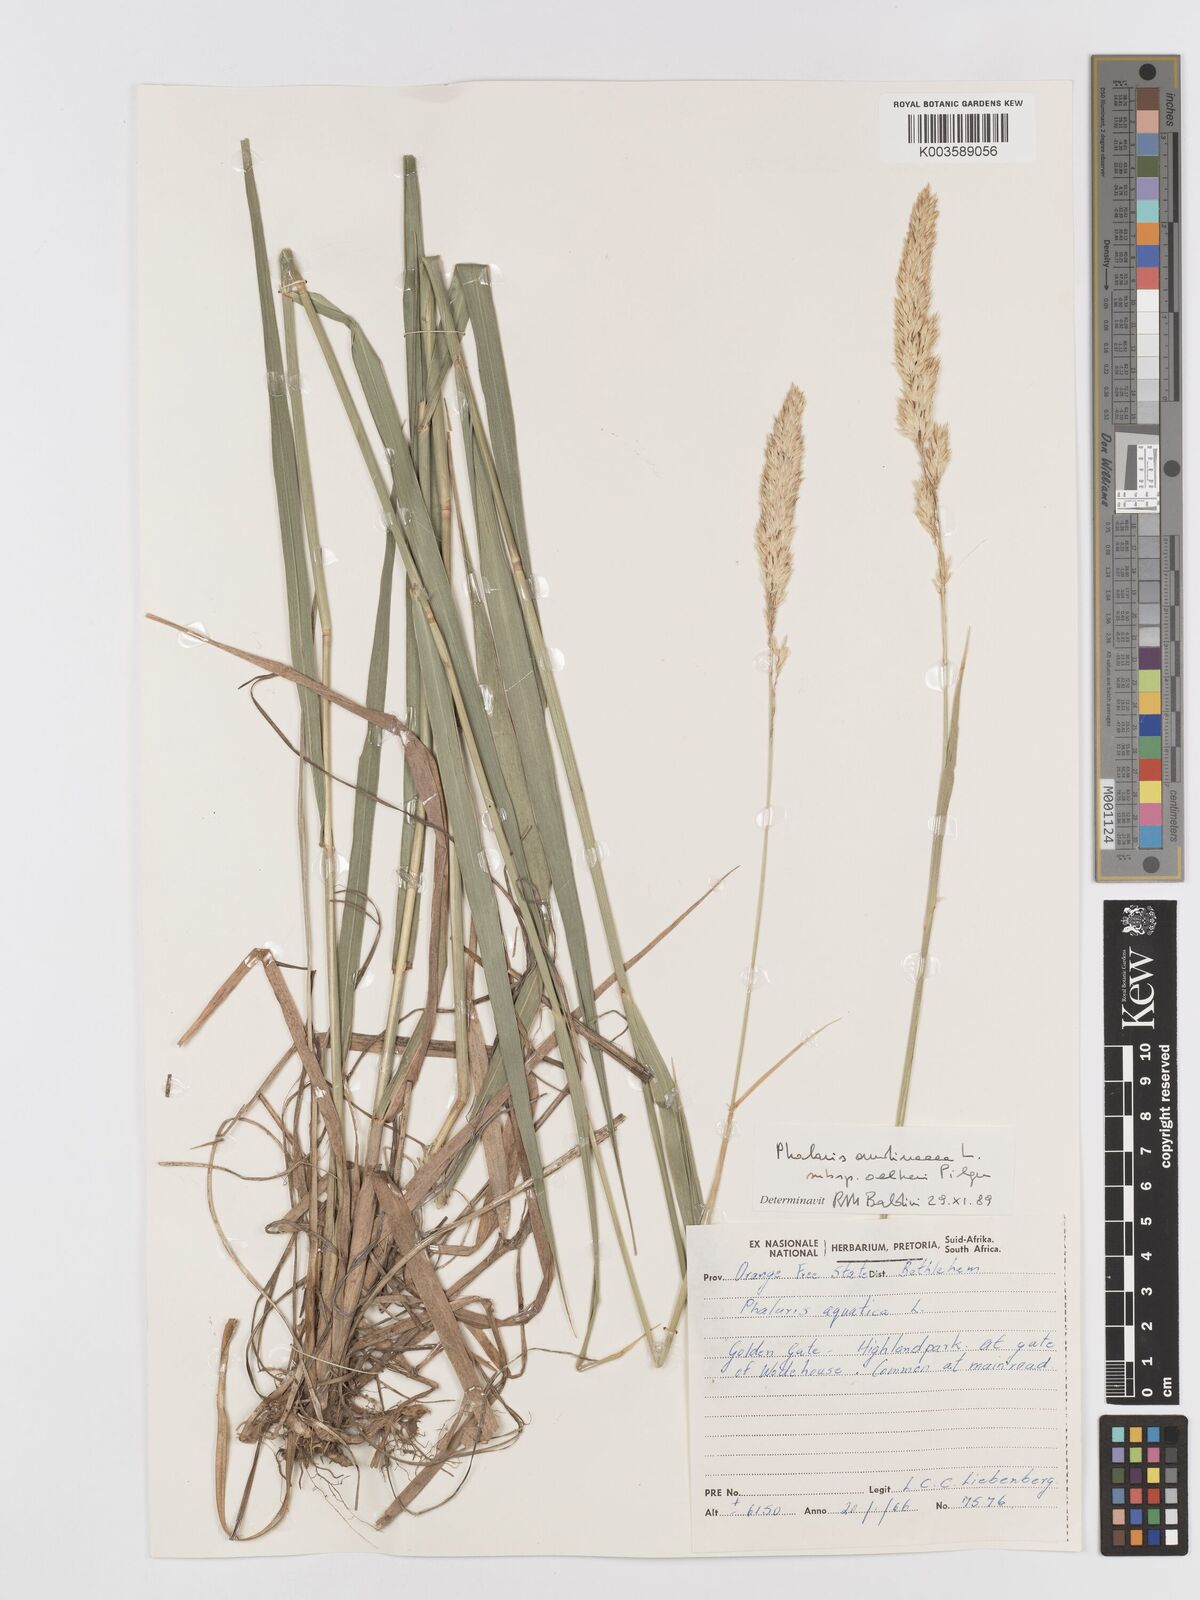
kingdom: Plantae
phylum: Tracheophyta
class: Liliopsida
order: Poales
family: Poaceae
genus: Phalaris
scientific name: Phalaris aquatica
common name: Bulbous canary-grass
